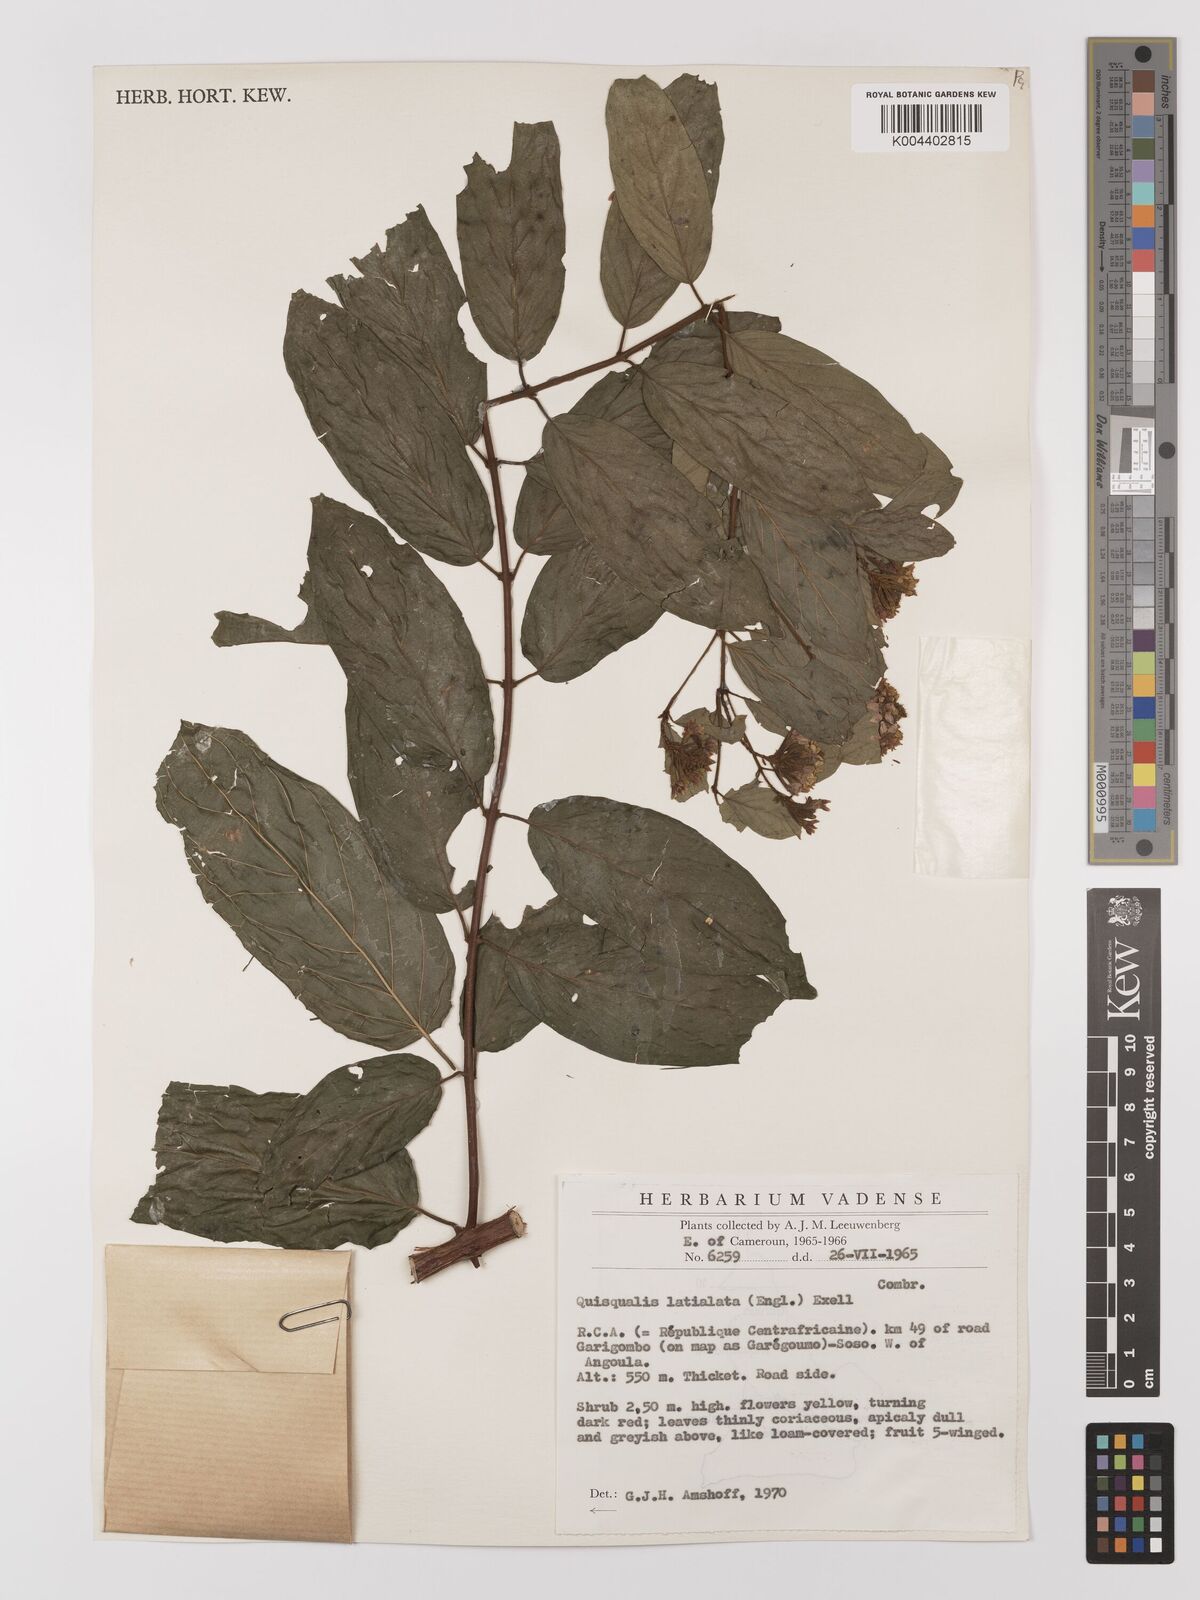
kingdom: Plantae
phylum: Tracheophyta
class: Magnoliopsida
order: Myrtales
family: Combretaceae
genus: Combretum
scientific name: Combretum latialatum
